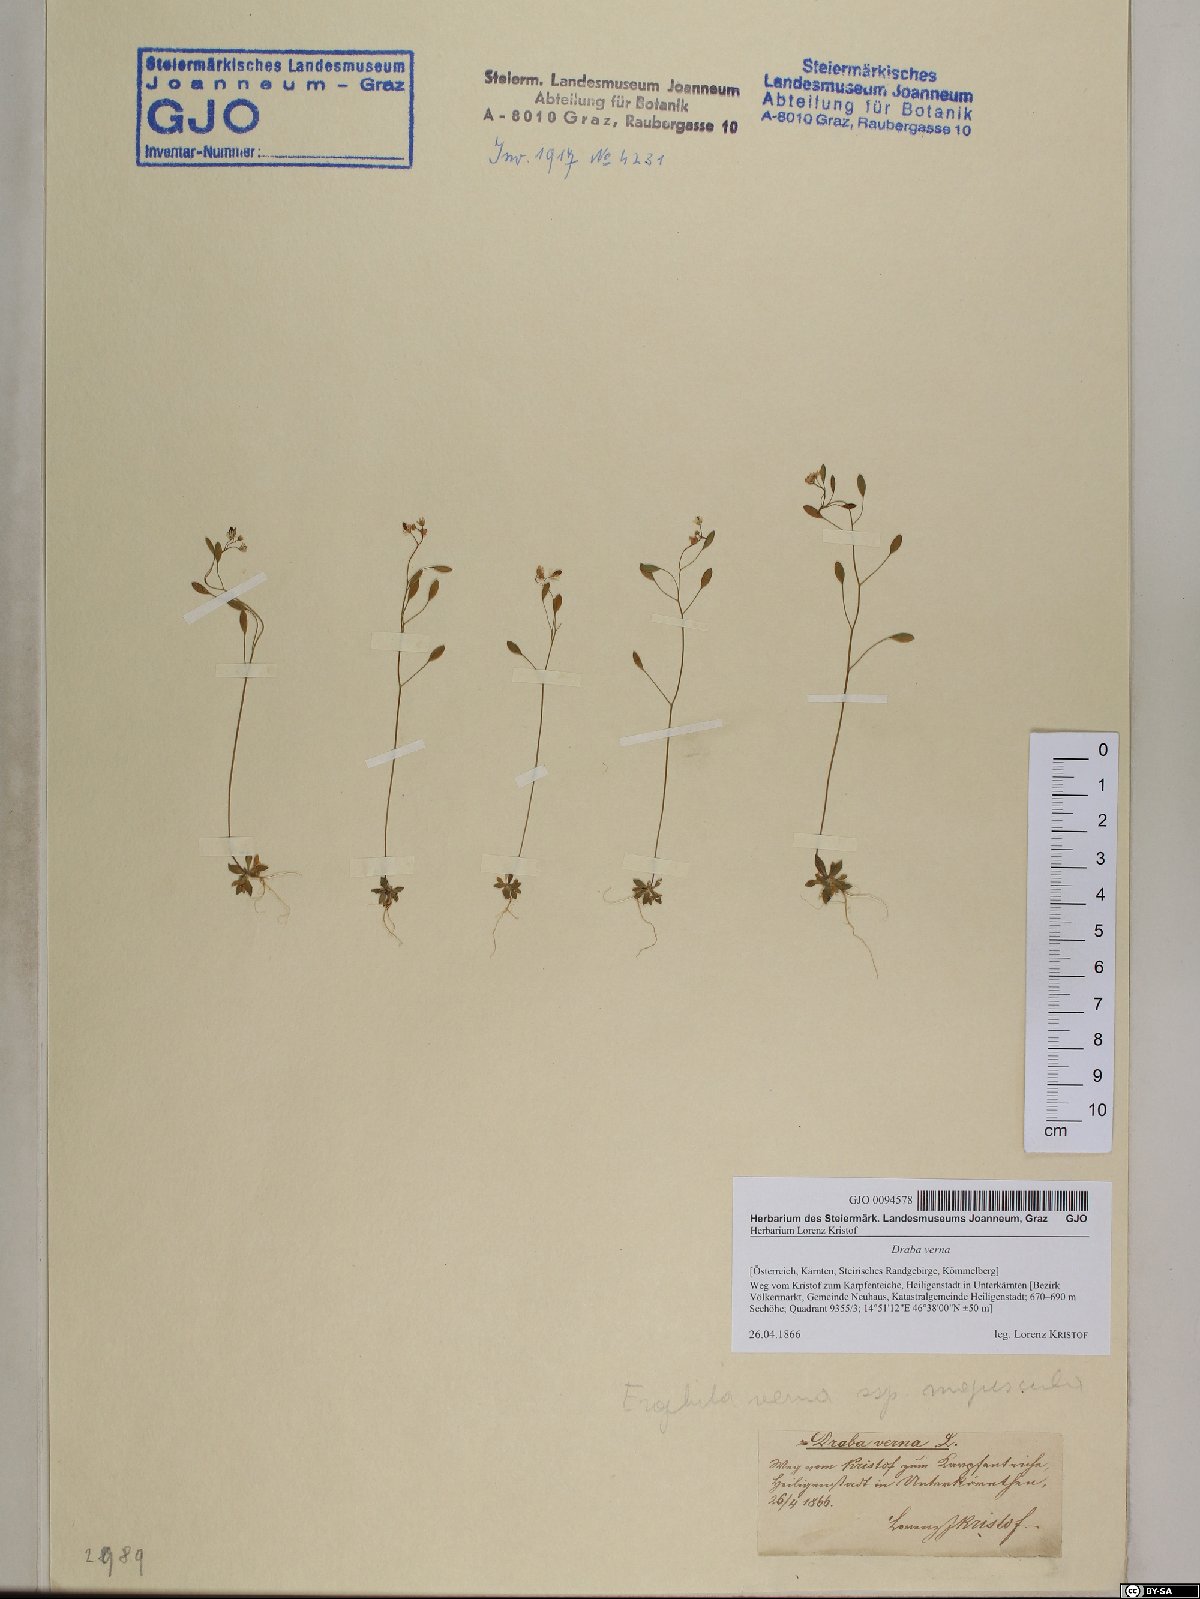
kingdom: Plantae
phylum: Tracheophyta
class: Magnoliopsida
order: Brassicales
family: Brassicaceae
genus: Draba
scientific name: Draba verna
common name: Spring draba
